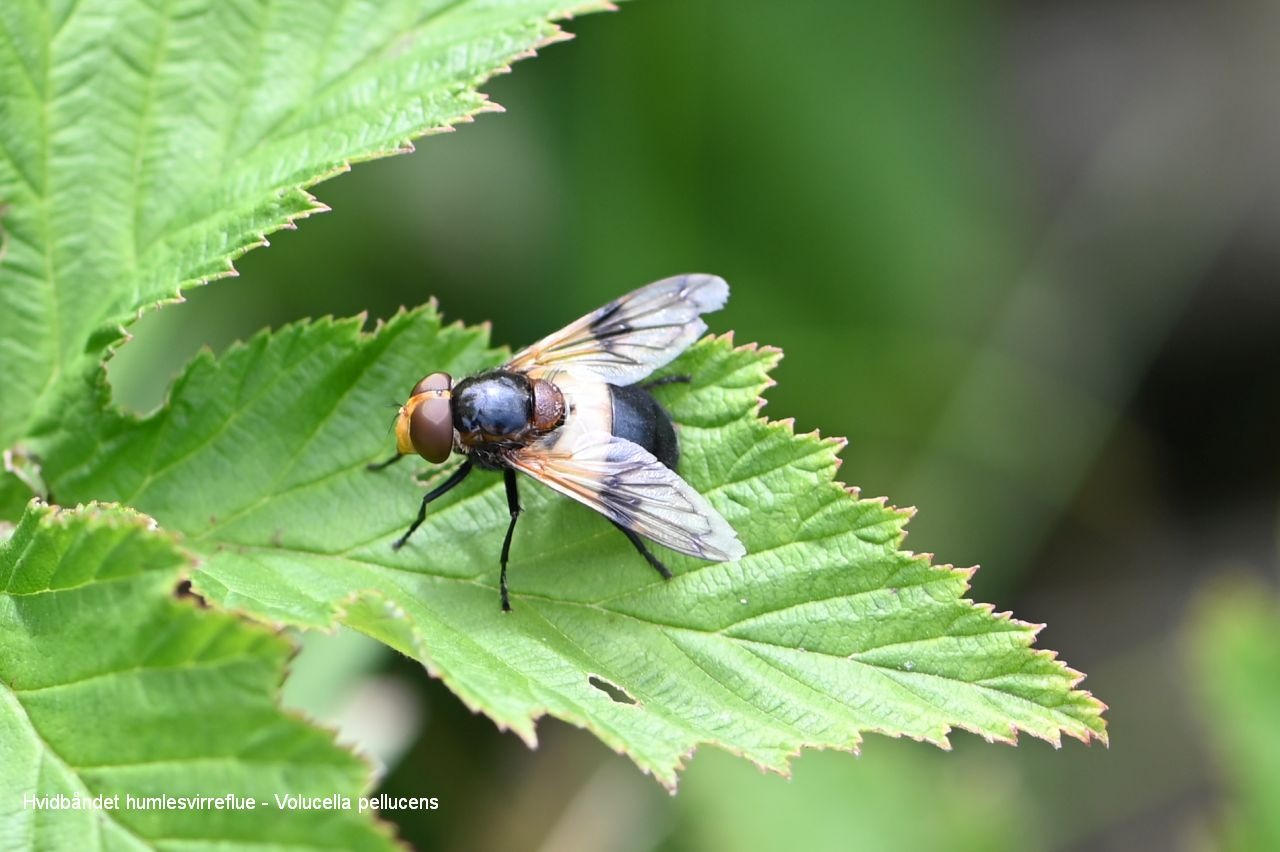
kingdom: Animalia
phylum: Arthropoda
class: Insecta
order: Diptera
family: Syrphidae
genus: Volucella
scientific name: Volucella pellucens
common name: Hvidbåndet humlesvirreflue
